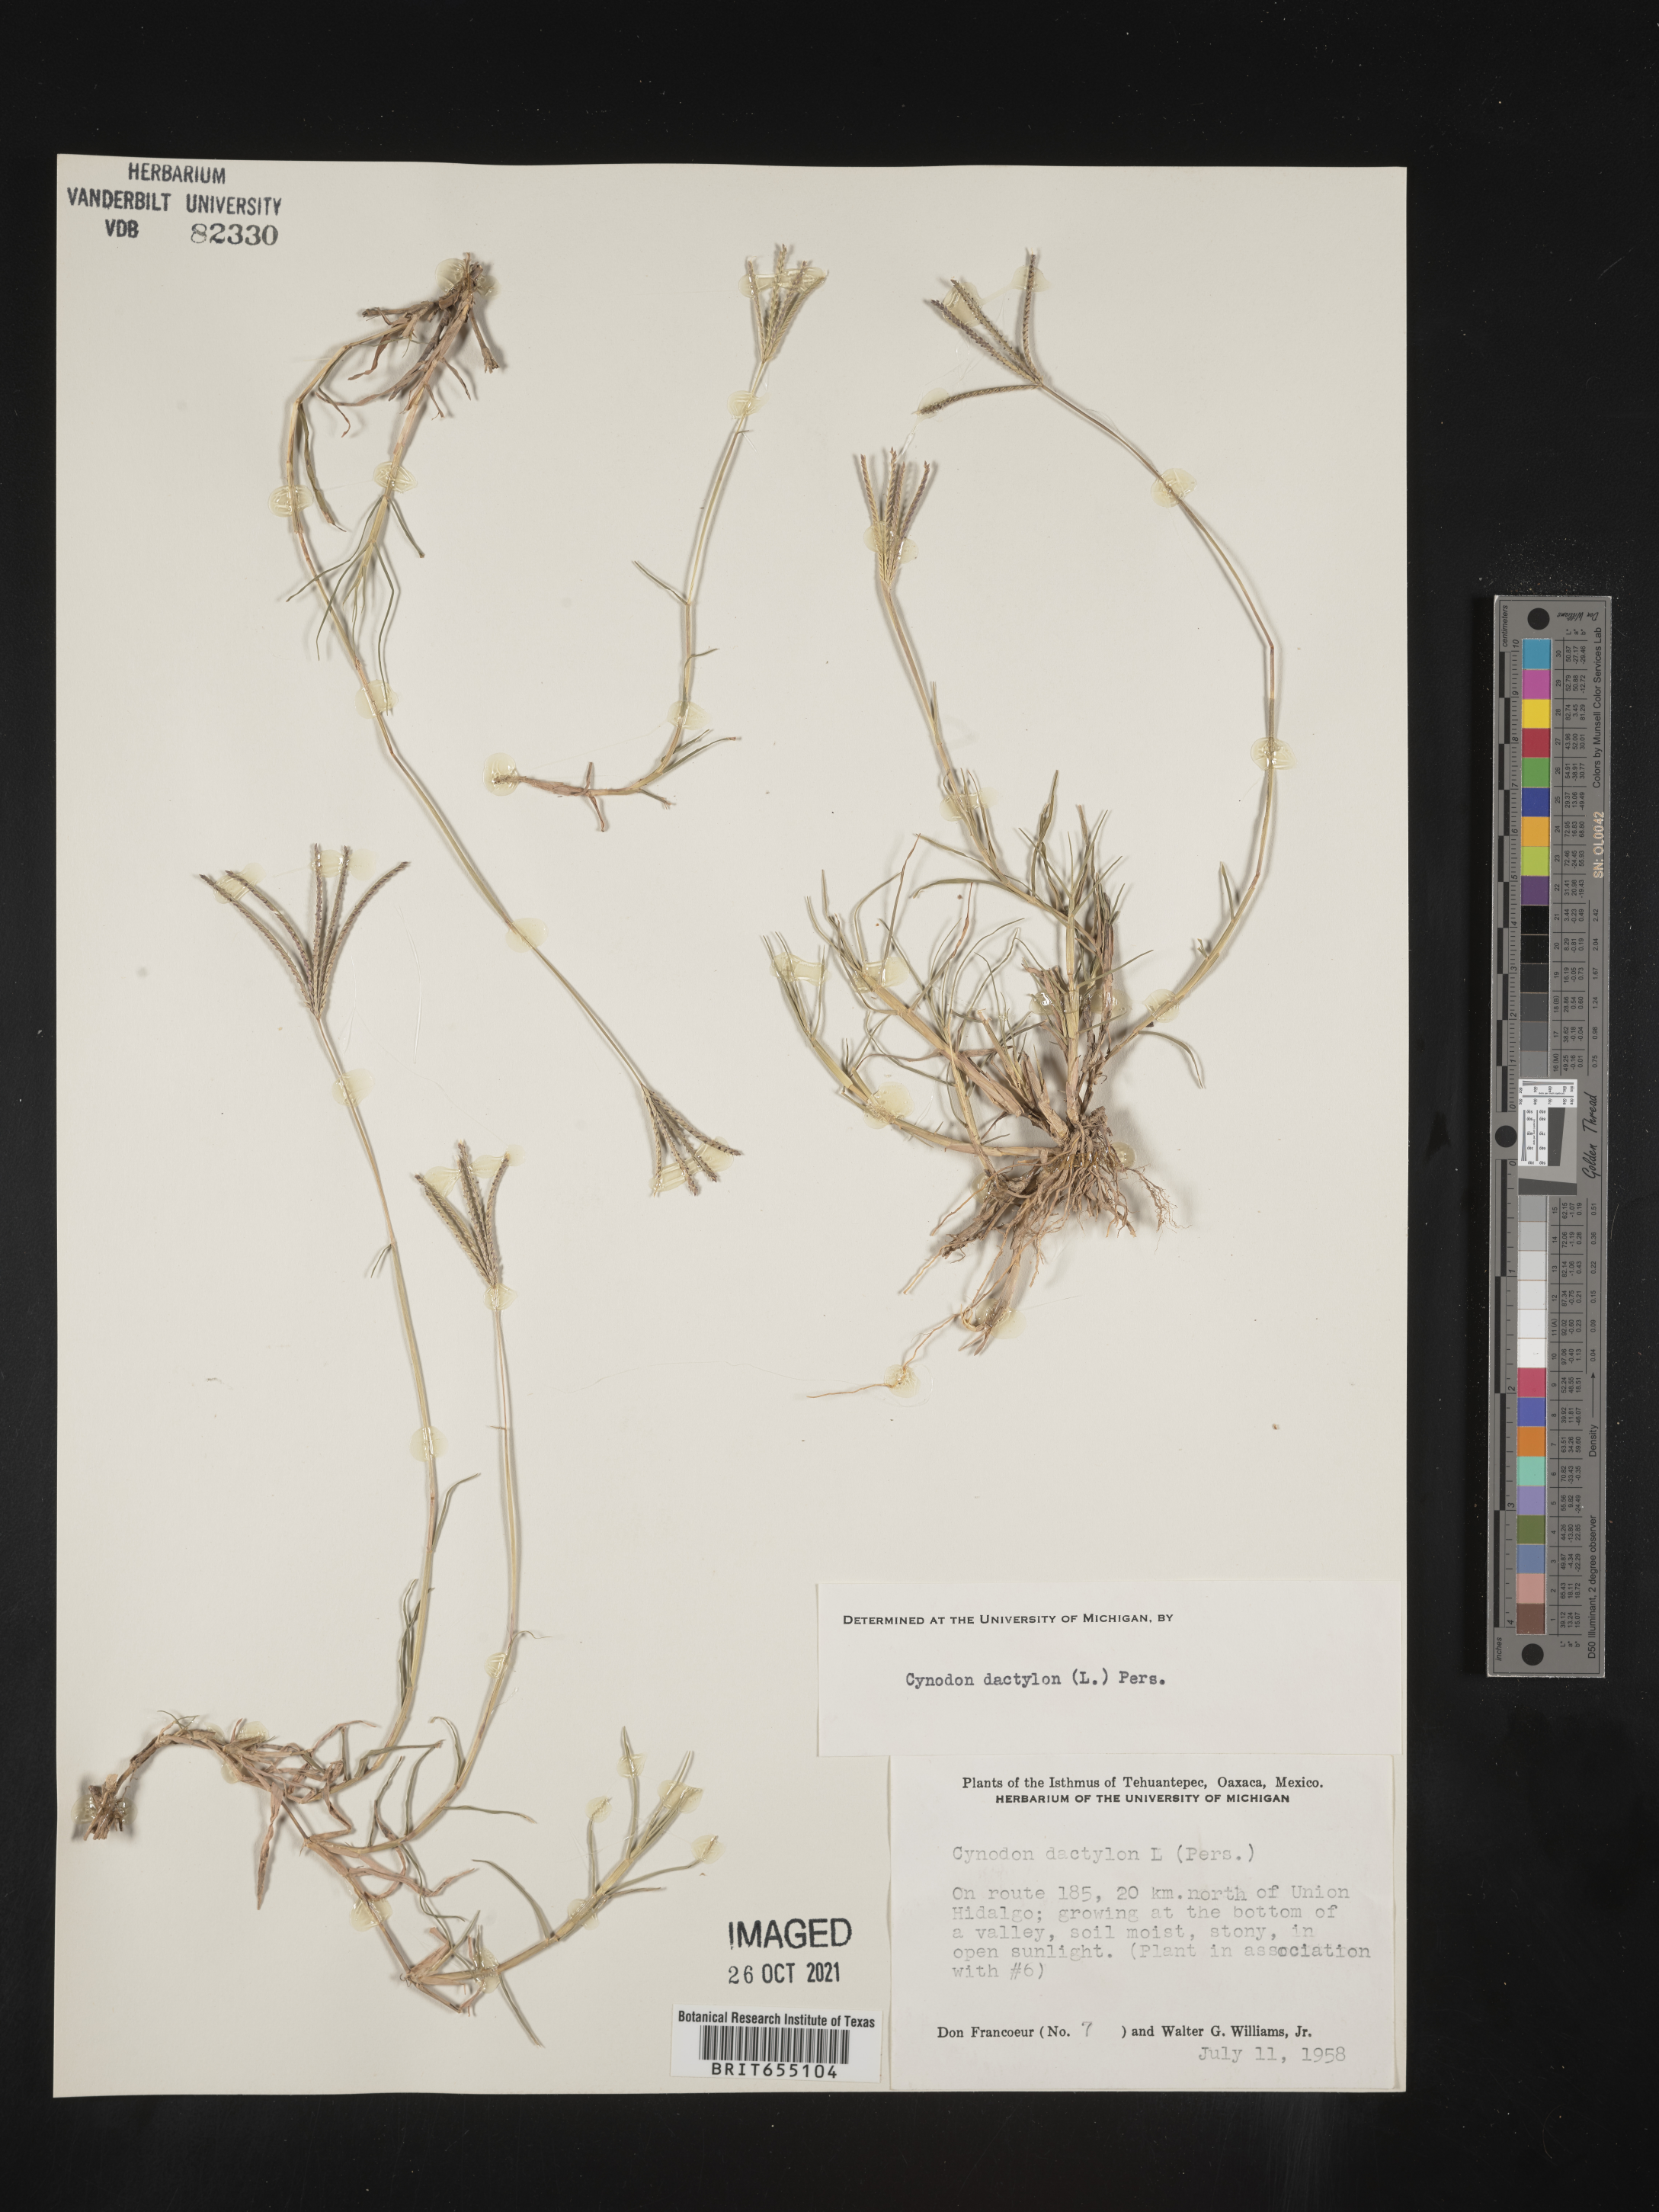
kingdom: Plantae
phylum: Tracheophyta
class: Liliopsida
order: Poales
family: Poaceae
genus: Cynodon
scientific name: Cynodon
